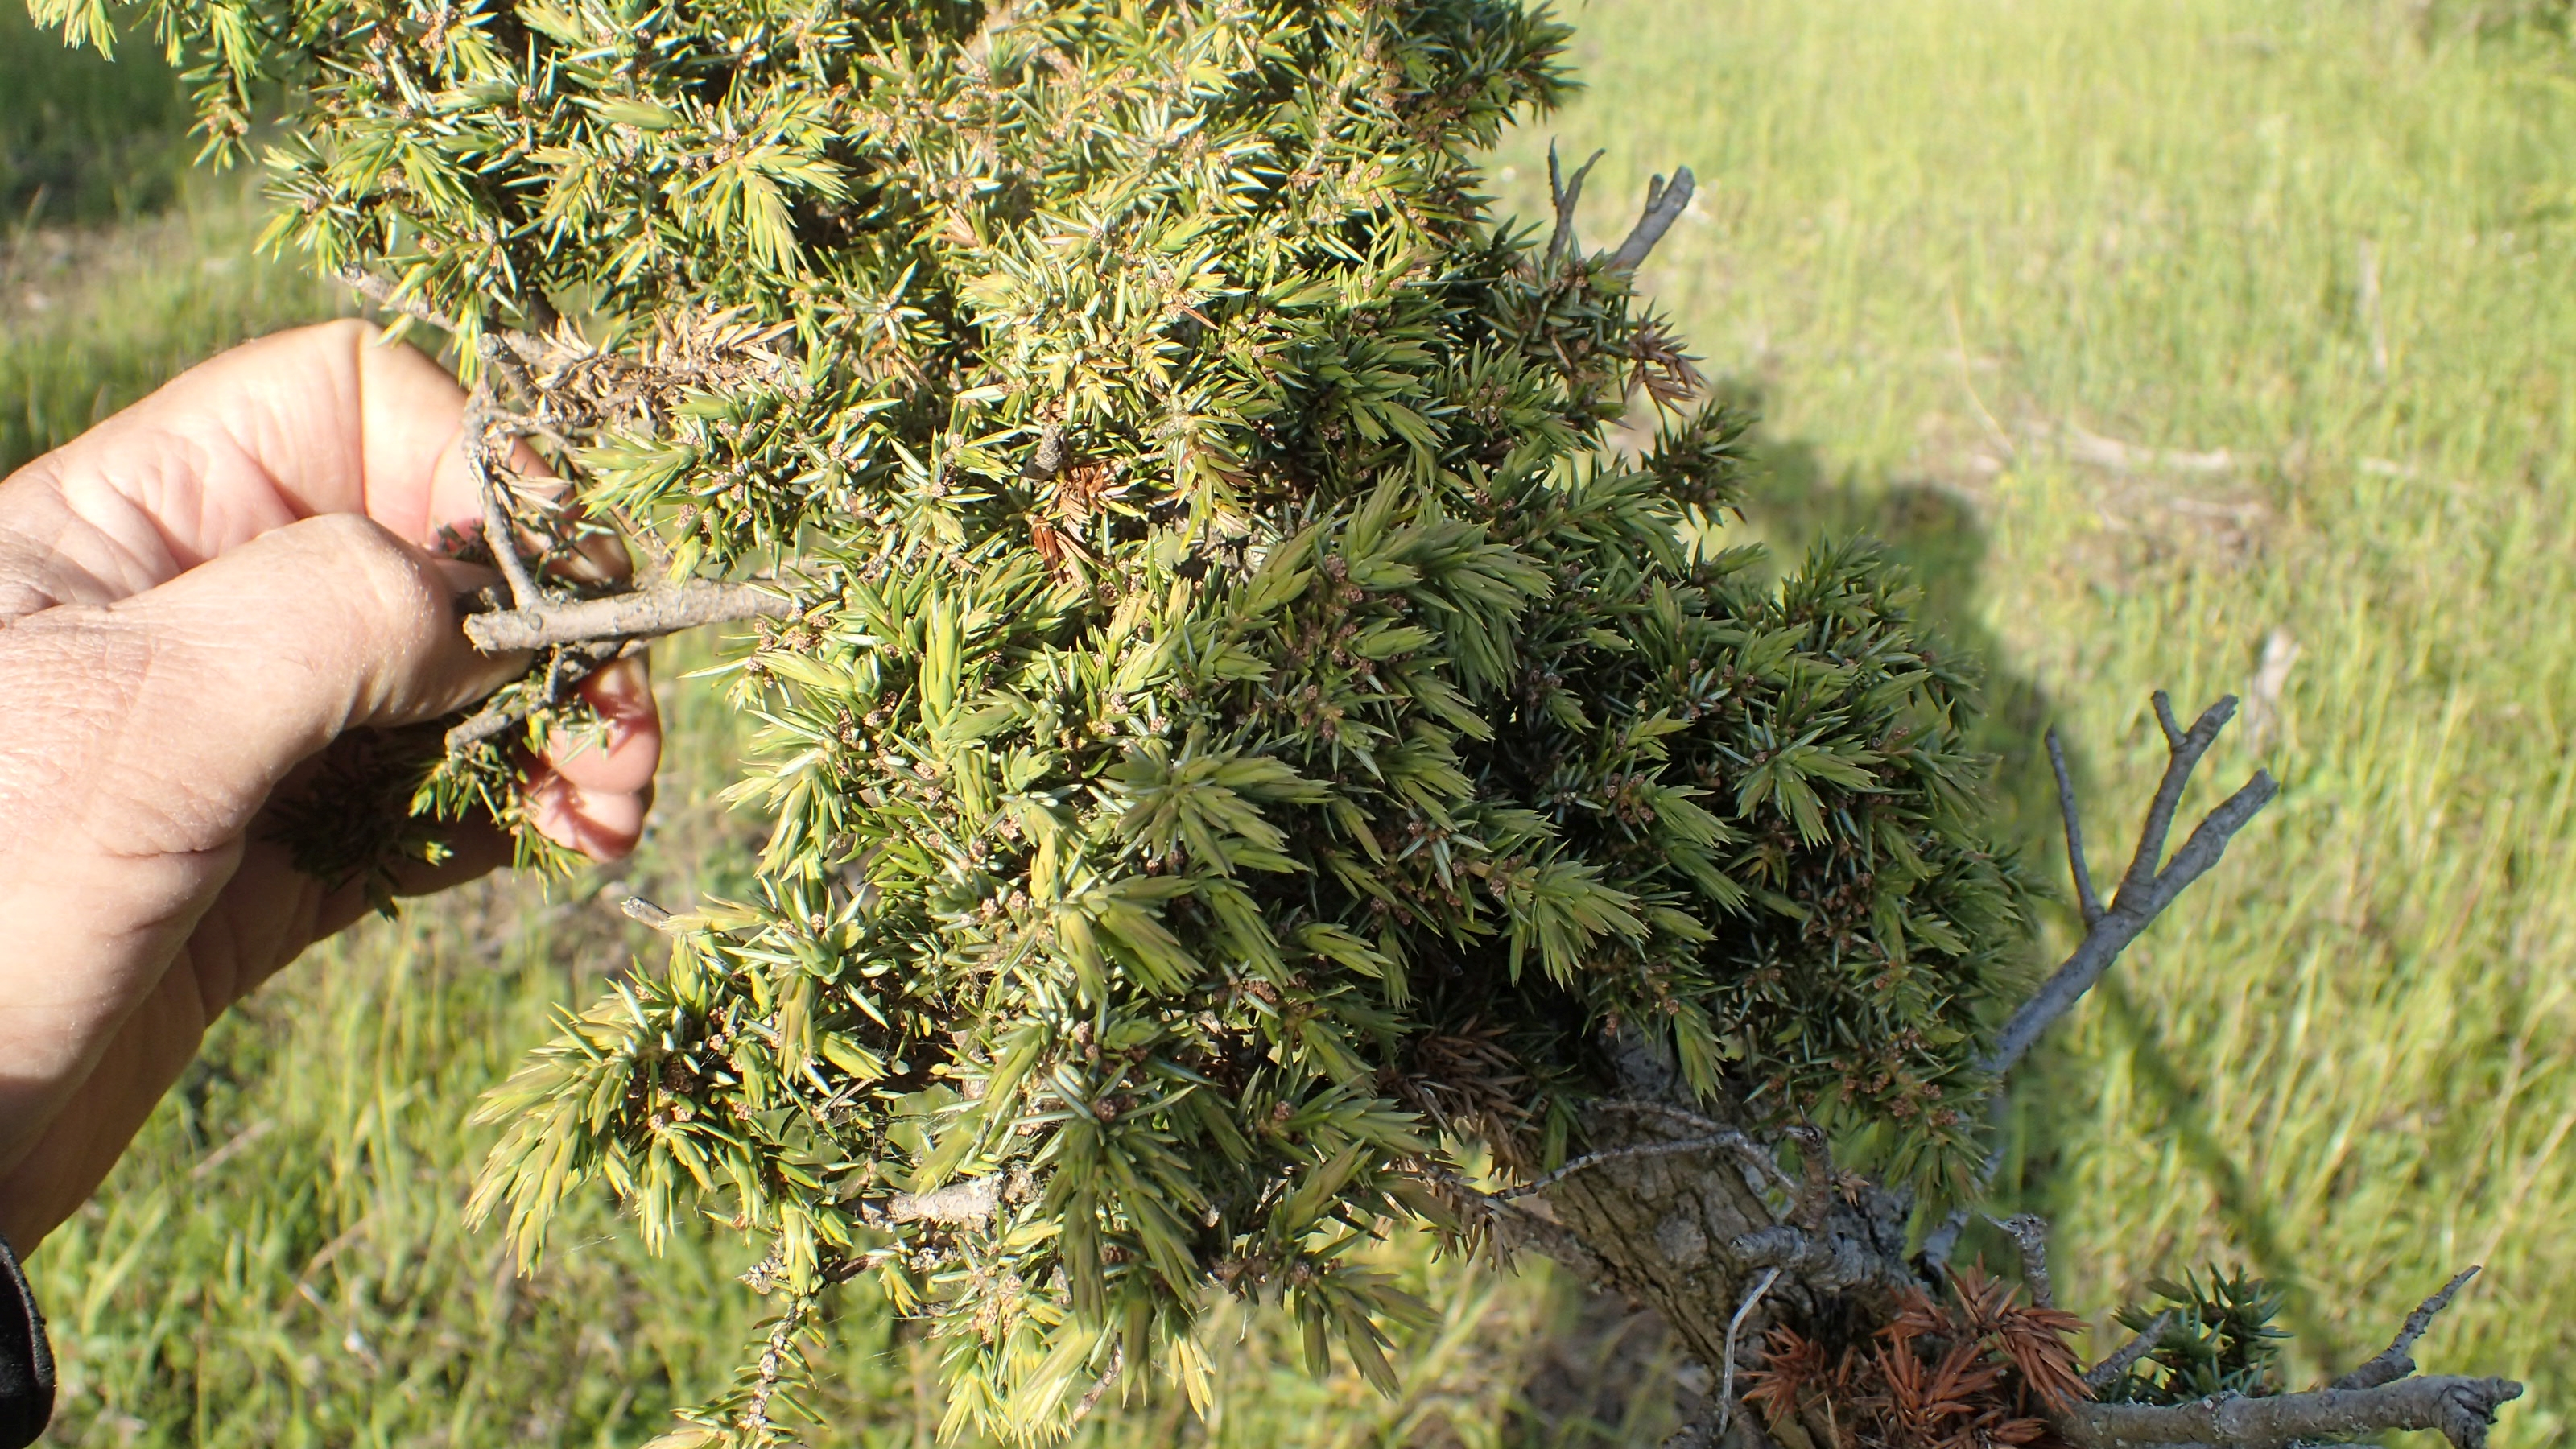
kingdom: Plantae
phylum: Tracheophyta
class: Pinopsida
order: Pinales
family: Cupressaceae
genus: Juniperus
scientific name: Juniperus communis
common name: Almindelig ene
